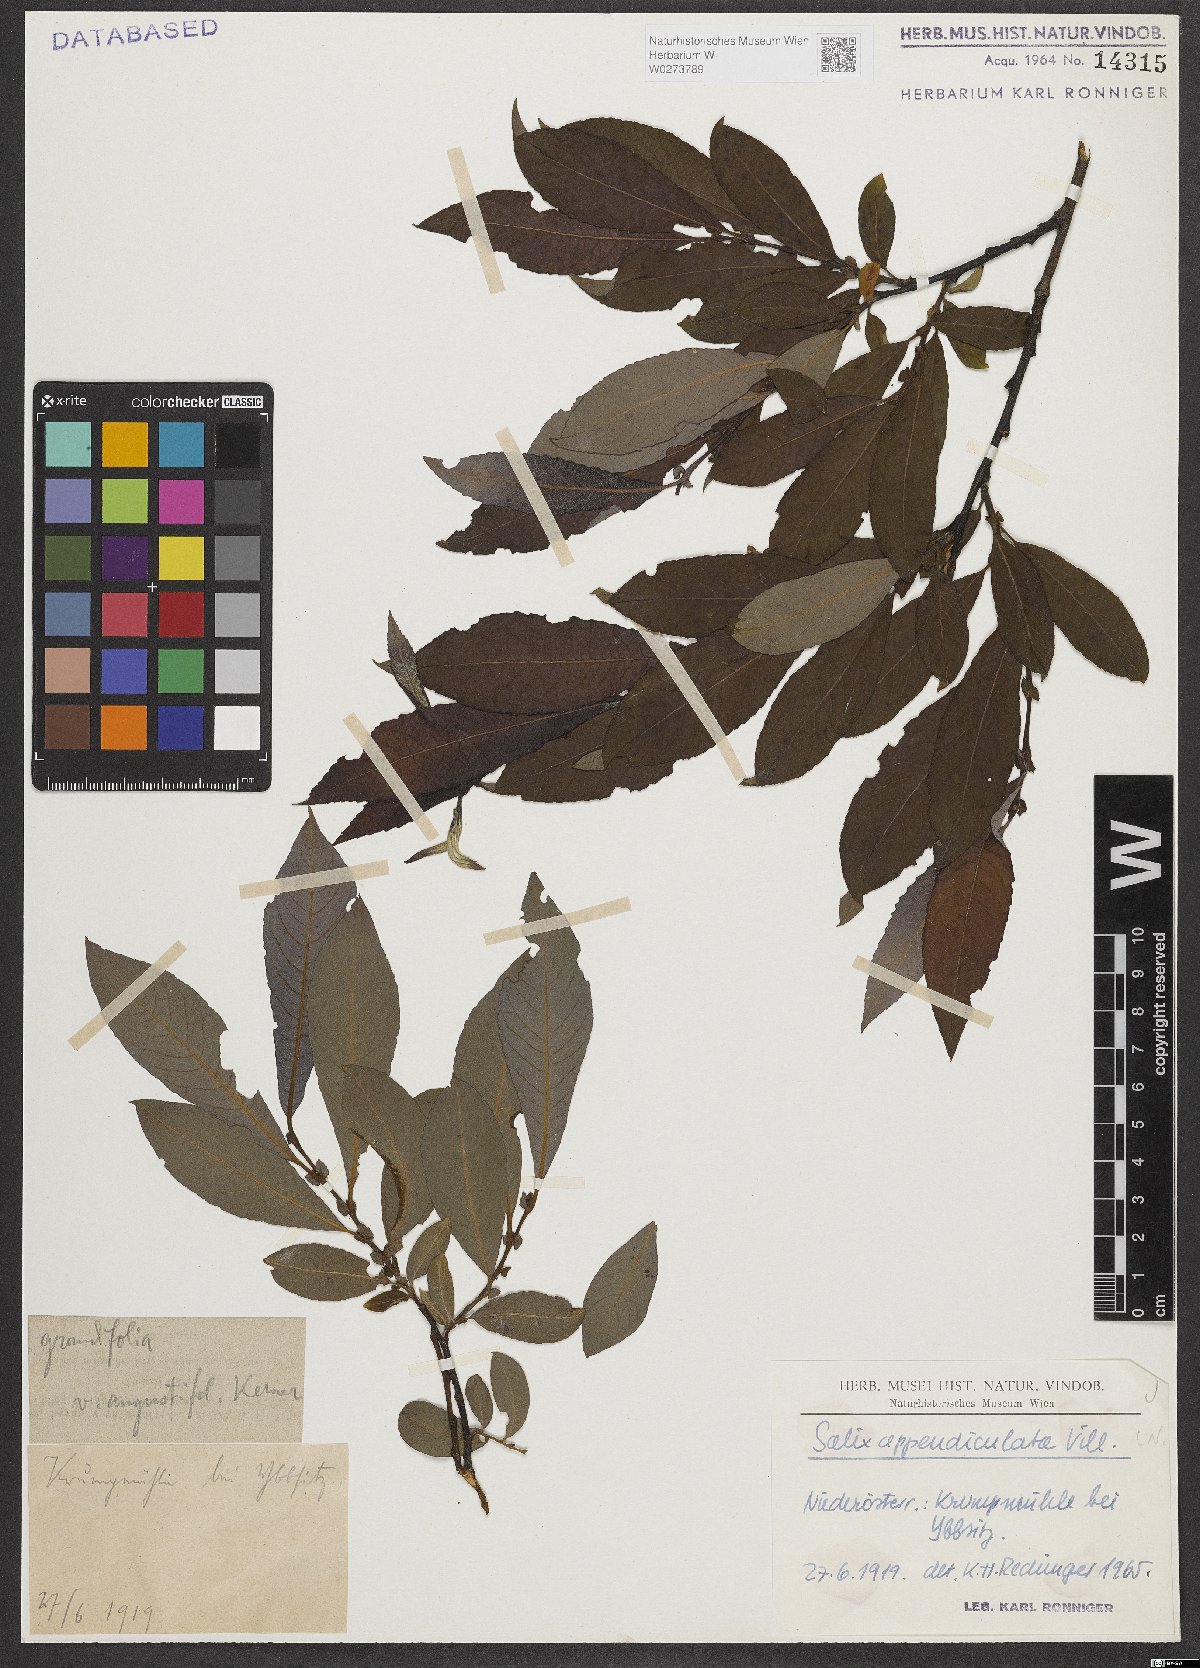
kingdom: Plantae
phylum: Tracheophyta
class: Magnoliopsida
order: Malpighiales
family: Salicaceae
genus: Salix
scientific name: Salix appendiculata
